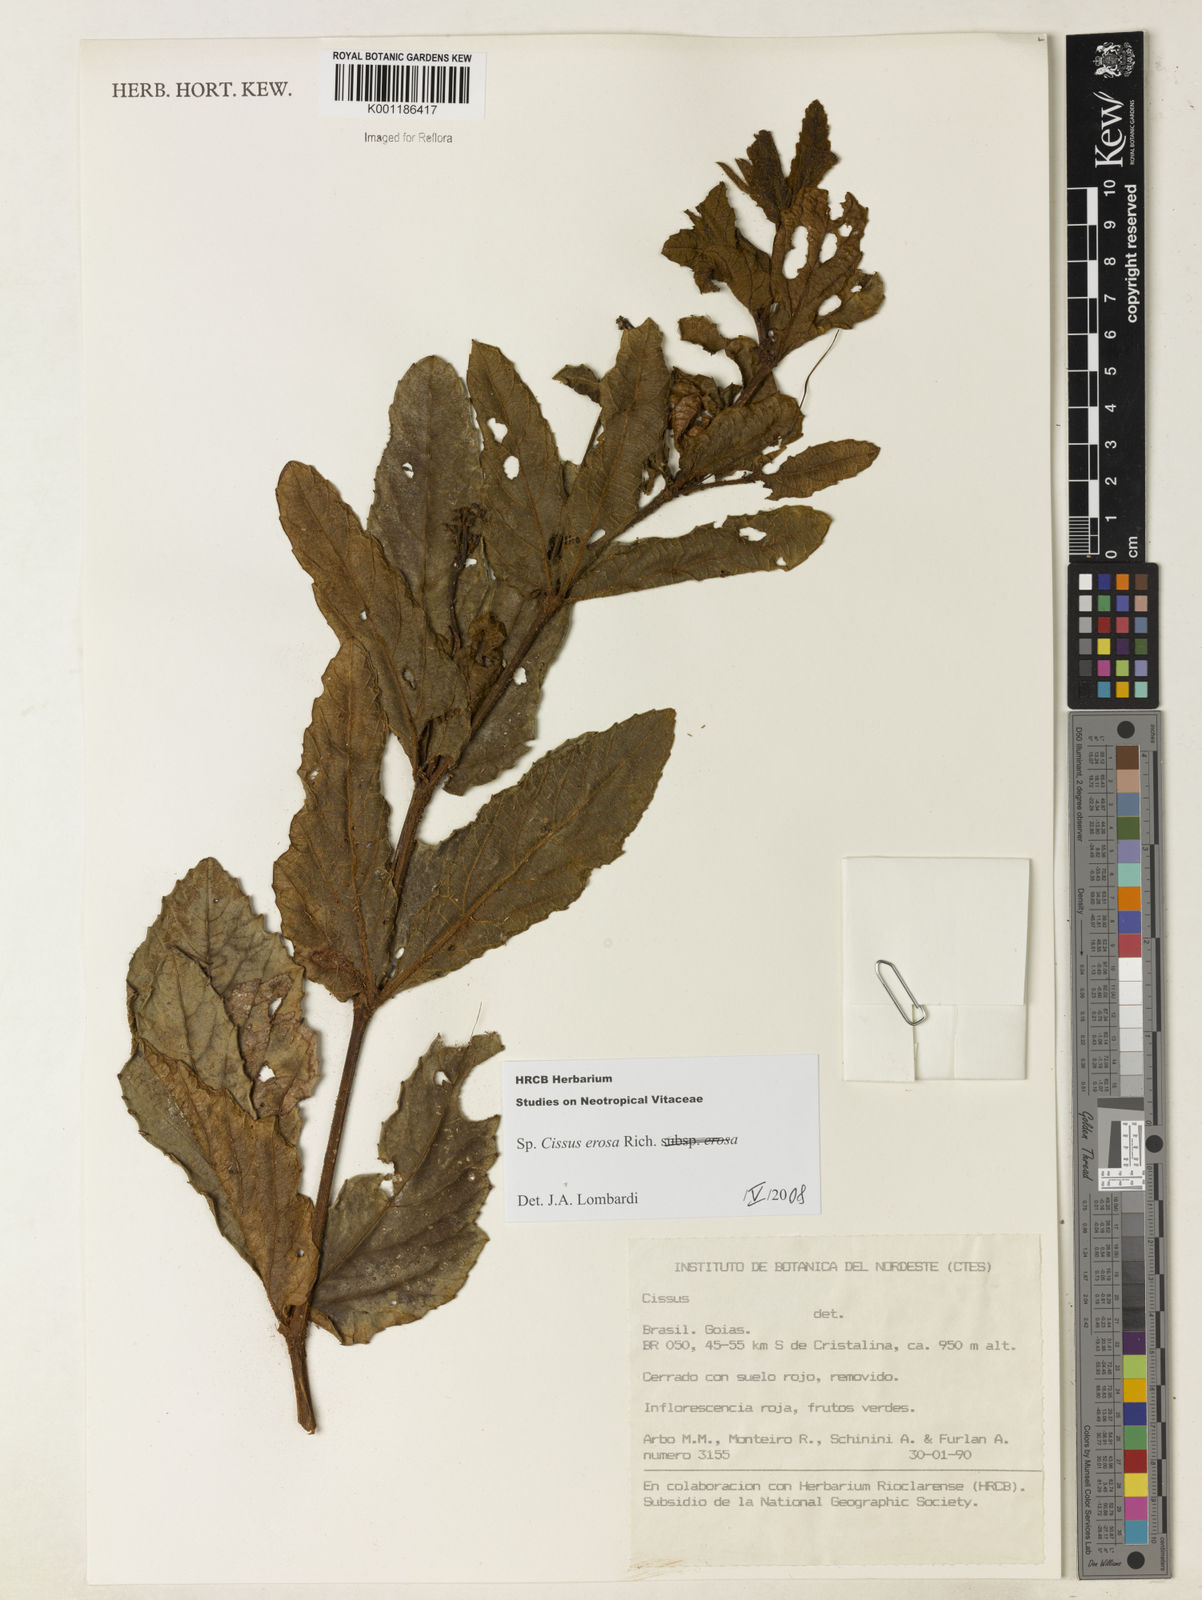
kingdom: Plantae
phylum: Tracheophyta
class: Magnoliopsida
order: Vitales
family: Vitaceae
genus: Cissus
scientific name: Cissus erosa
